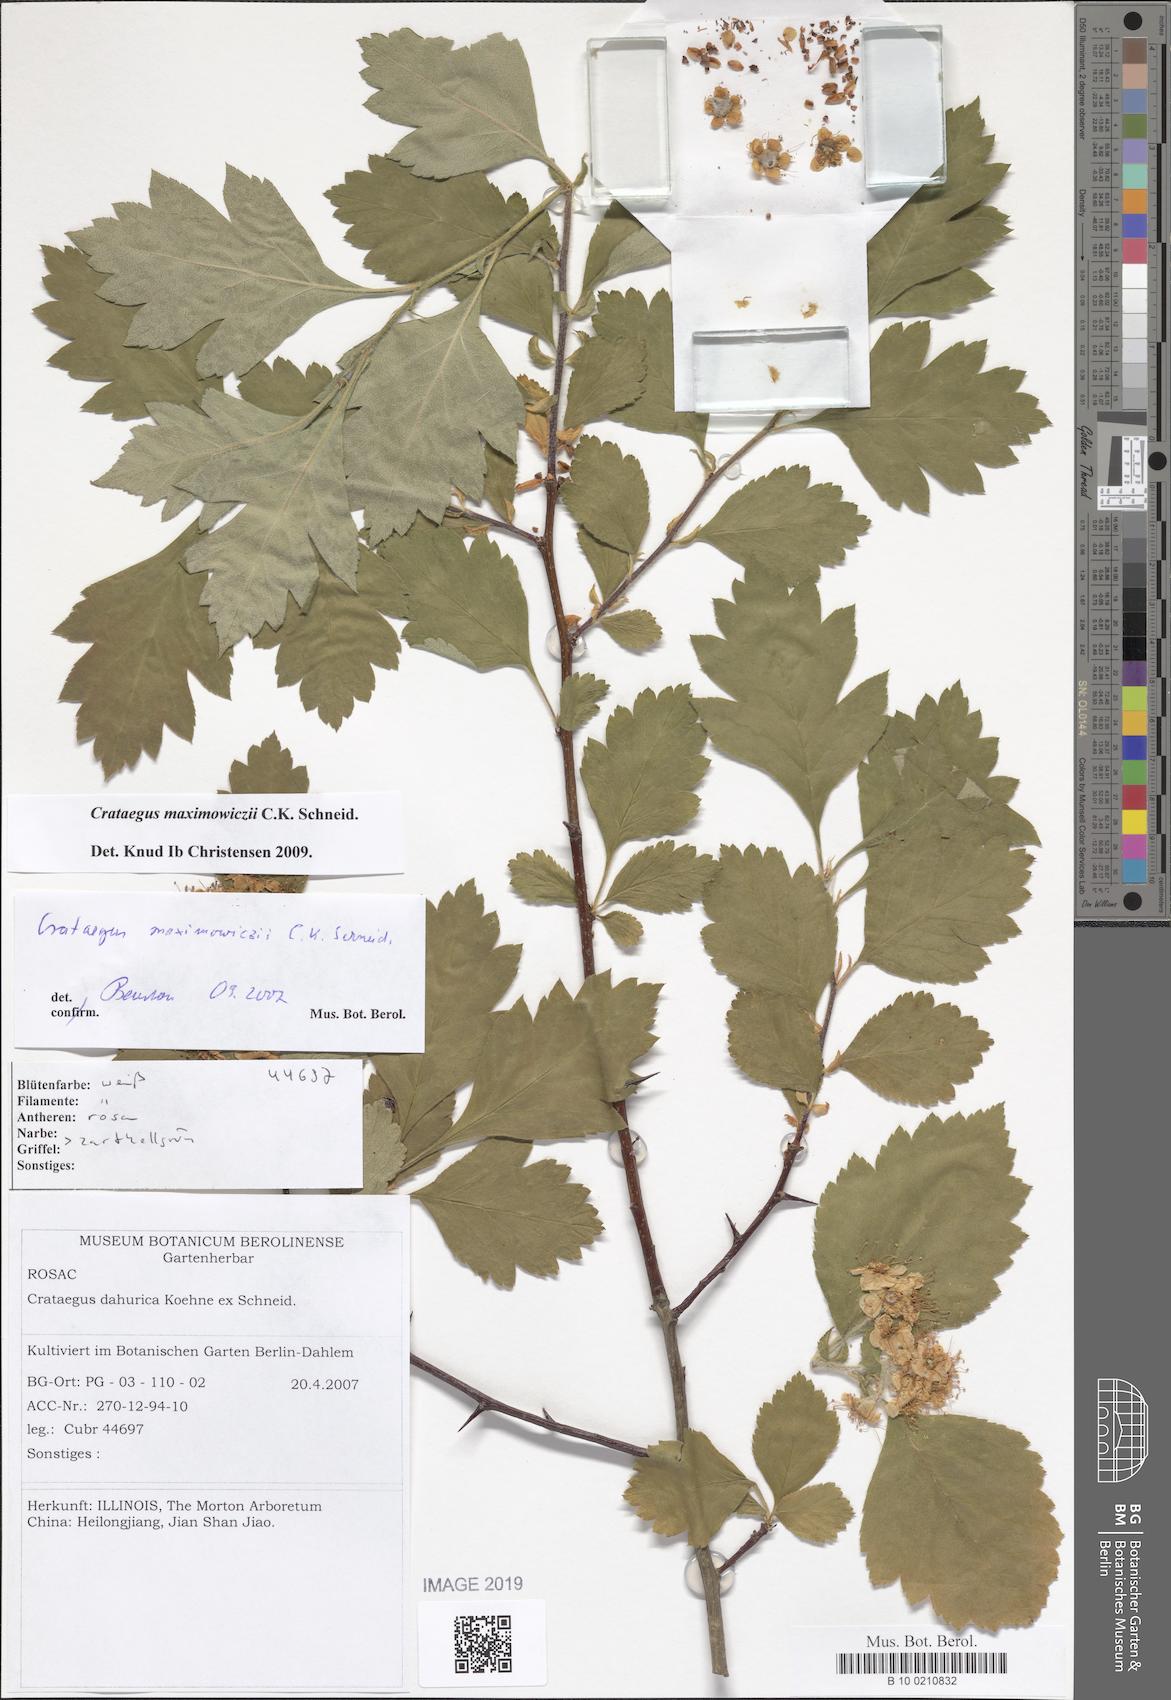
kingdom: Plantae
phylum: Tracheophyta
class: Magnoliopsida
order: Rosales
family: Rosaceae
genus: Crataegus
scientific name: Crataegus maximowiczii
